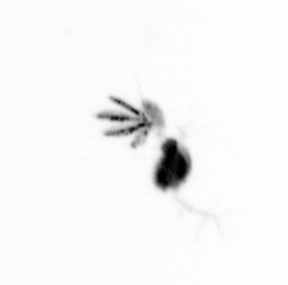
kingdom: Animalia
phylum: Arthropoda
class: Copepoda
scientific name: Copepoda
